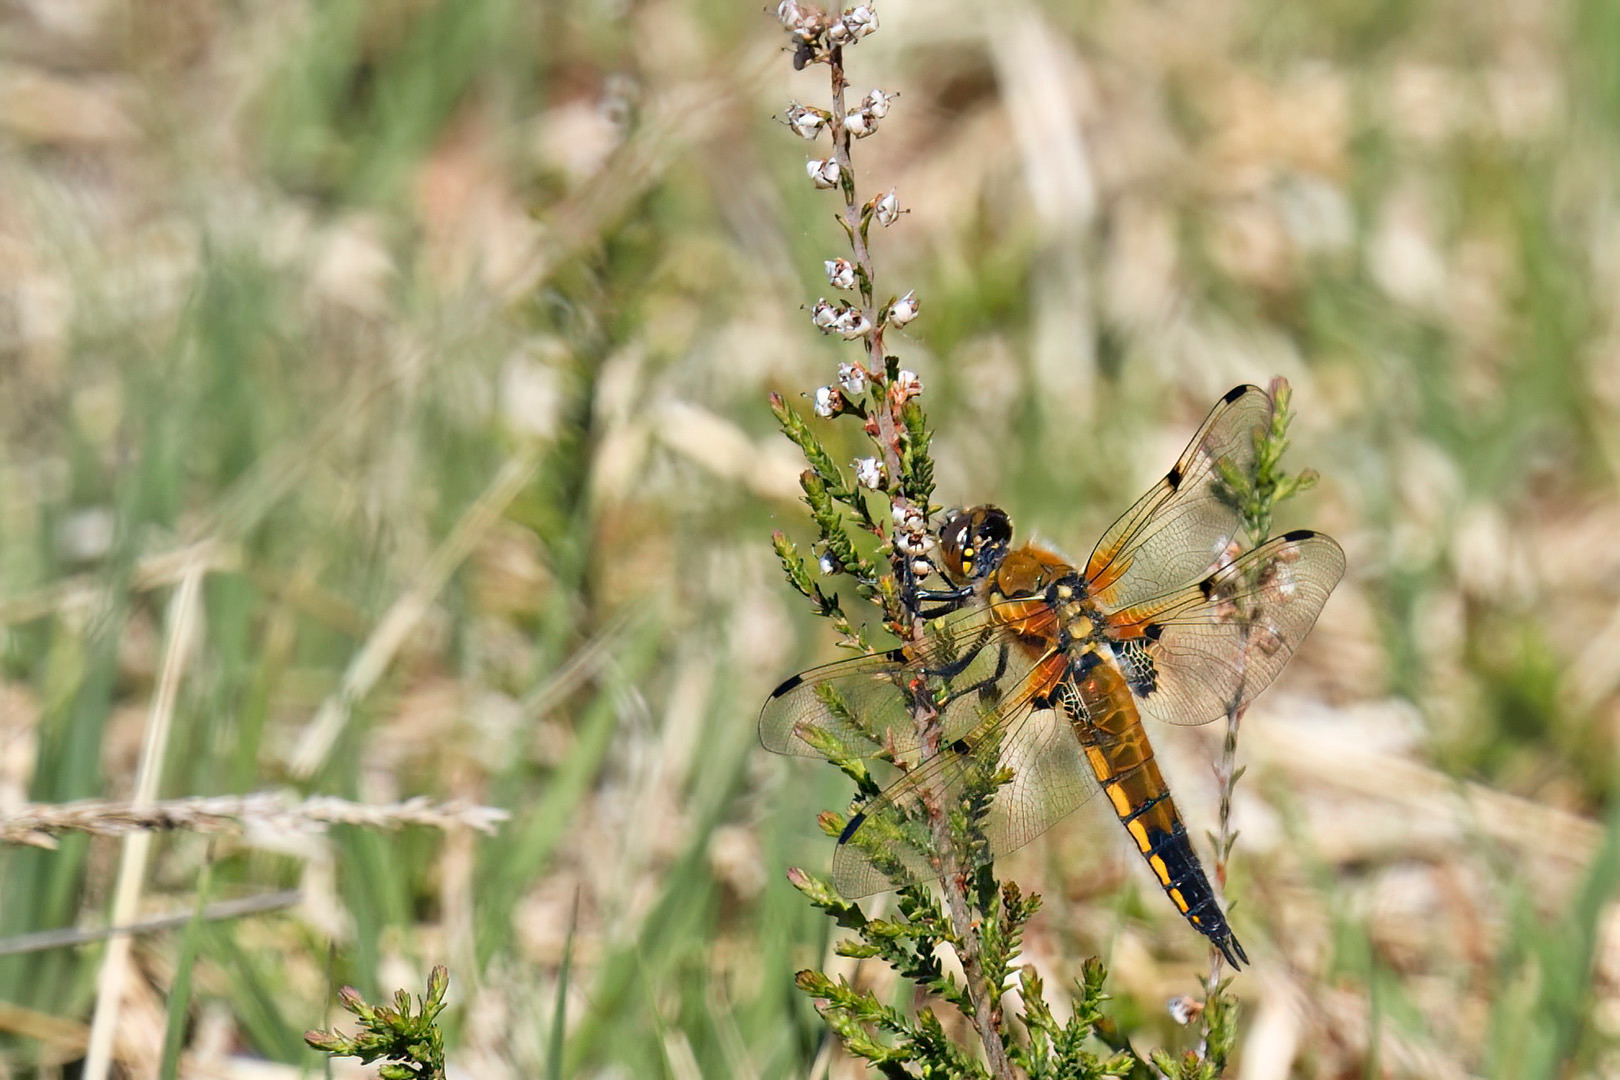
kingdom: Animalia
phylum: Arthropoda
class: Insecta
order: Odonata
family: Libellulidae
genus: Libellula
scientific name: Libellula quadrimaculata
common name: Fireplettet libel
